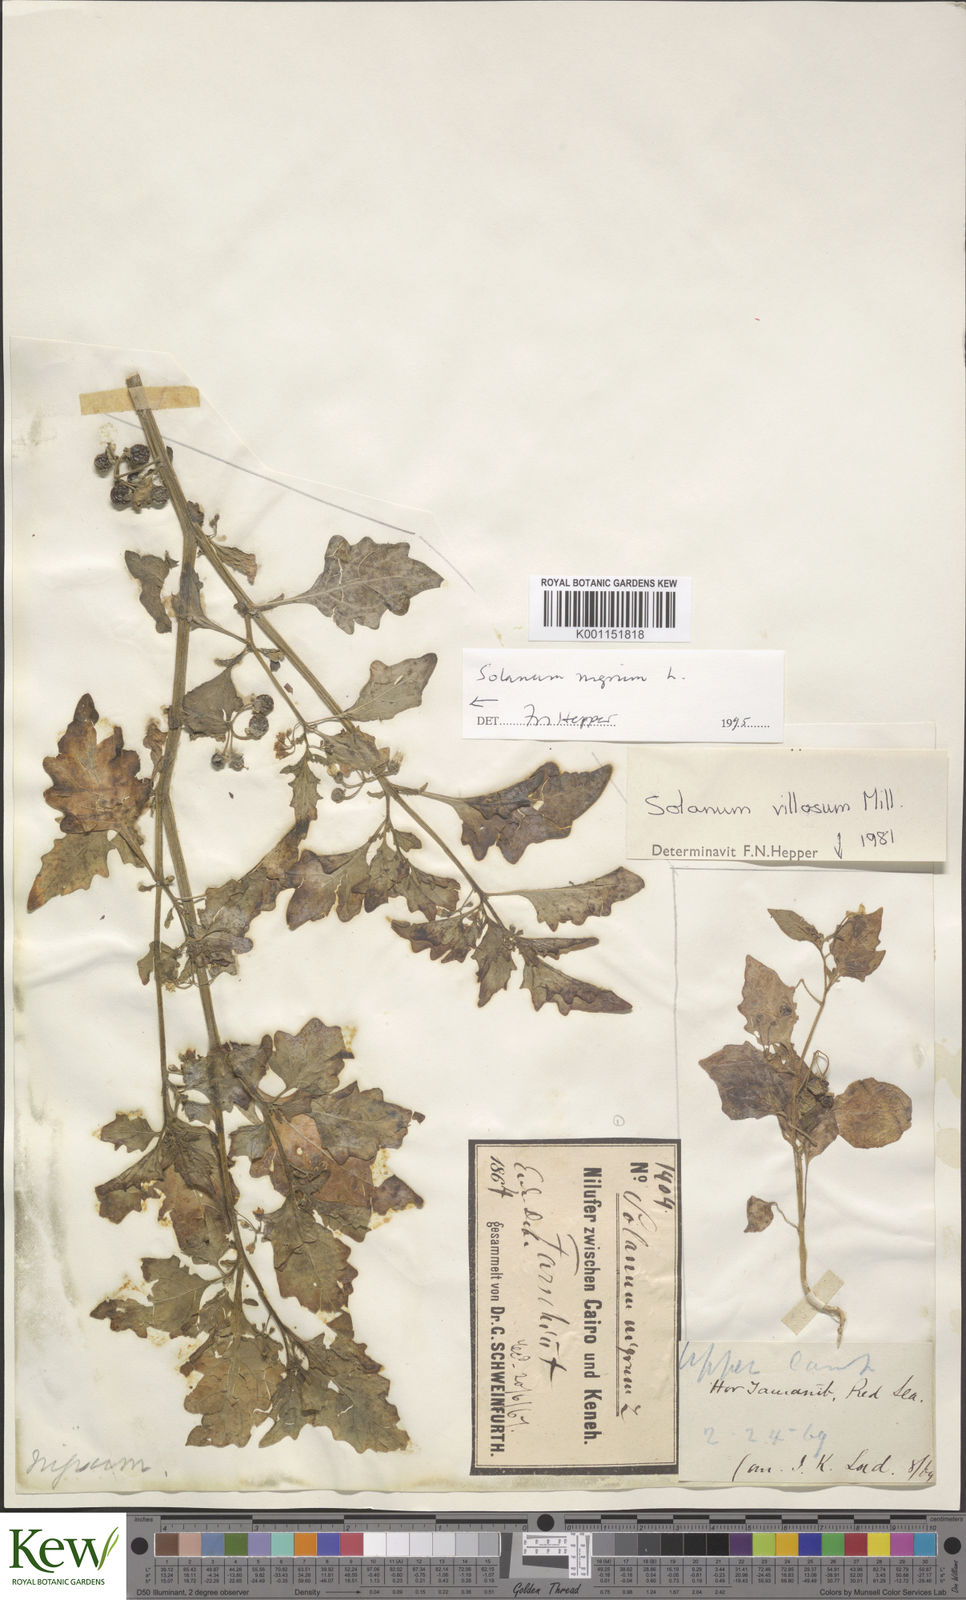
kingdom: Plantae
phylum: Tracheophyta
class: Magnoliopsida
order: Solanales
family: Solanaceae
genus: Solanum
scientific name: Solanum nigrum
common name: Black nightshade
